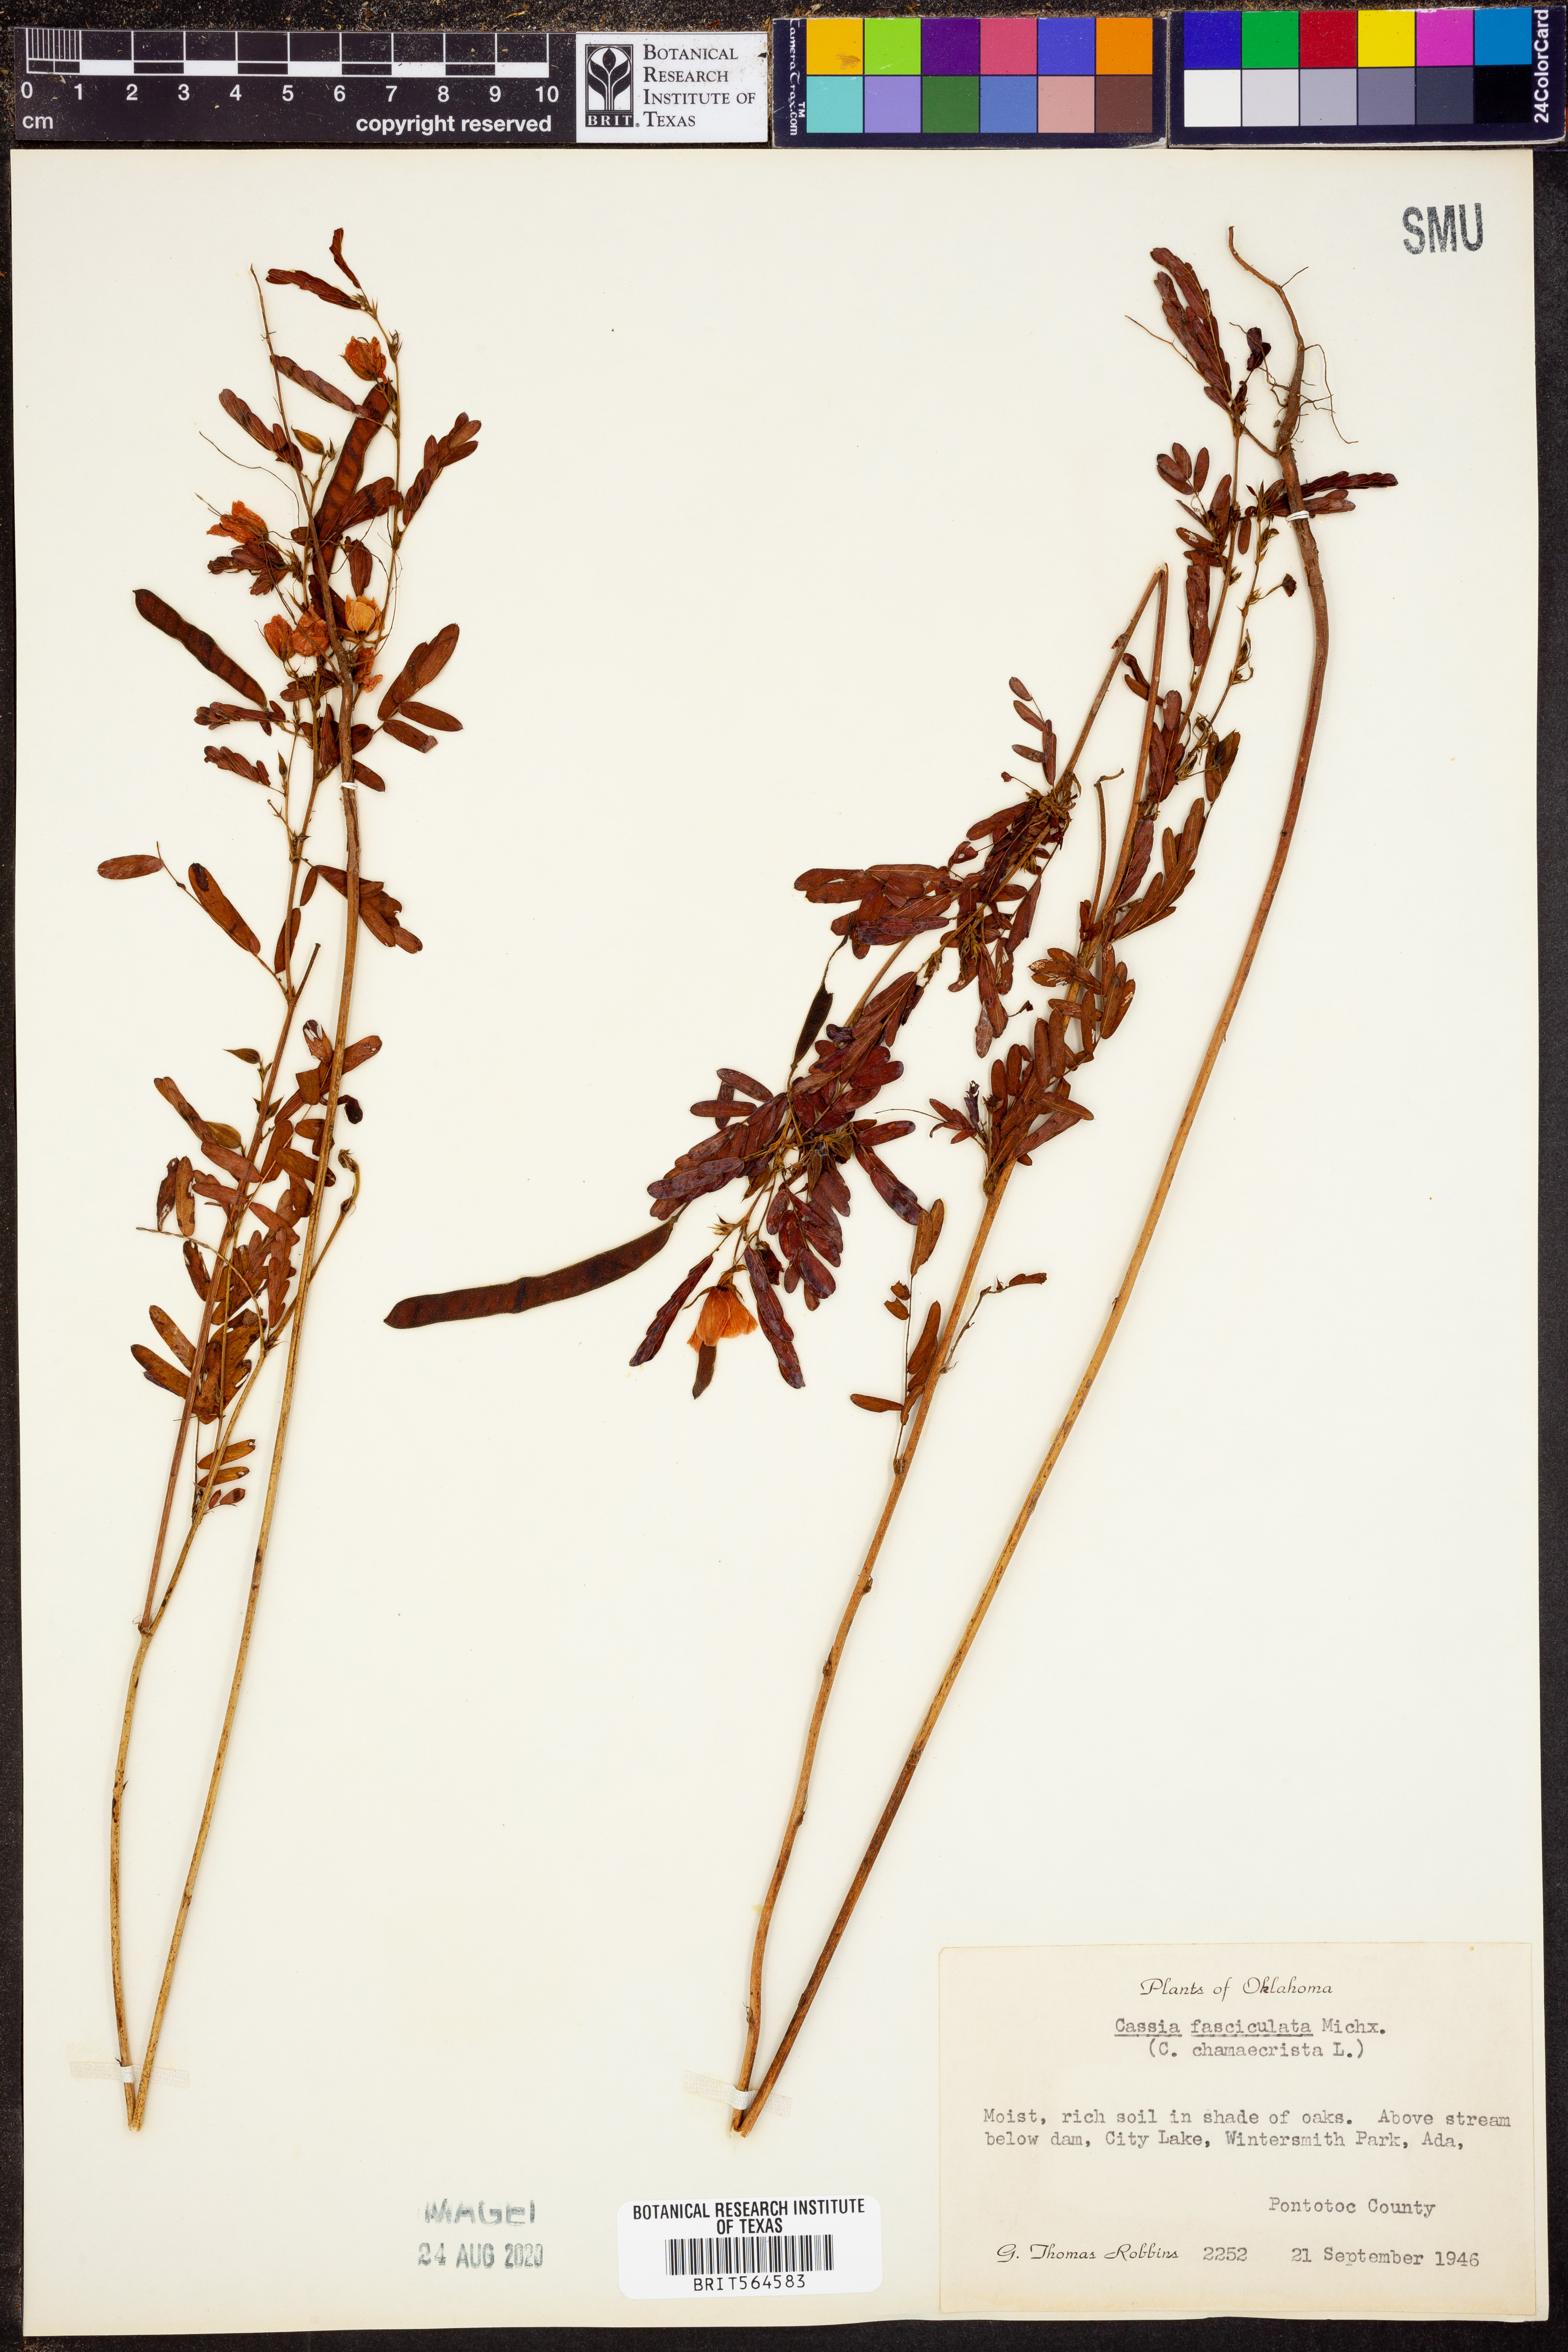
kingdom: Plantae
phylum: Tracheophyta
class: Magnoliopsida
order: Fabales
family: Fabaceae
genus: Chamaecrista
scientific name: Chamaecrista fasciculata
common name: Golden cassia
